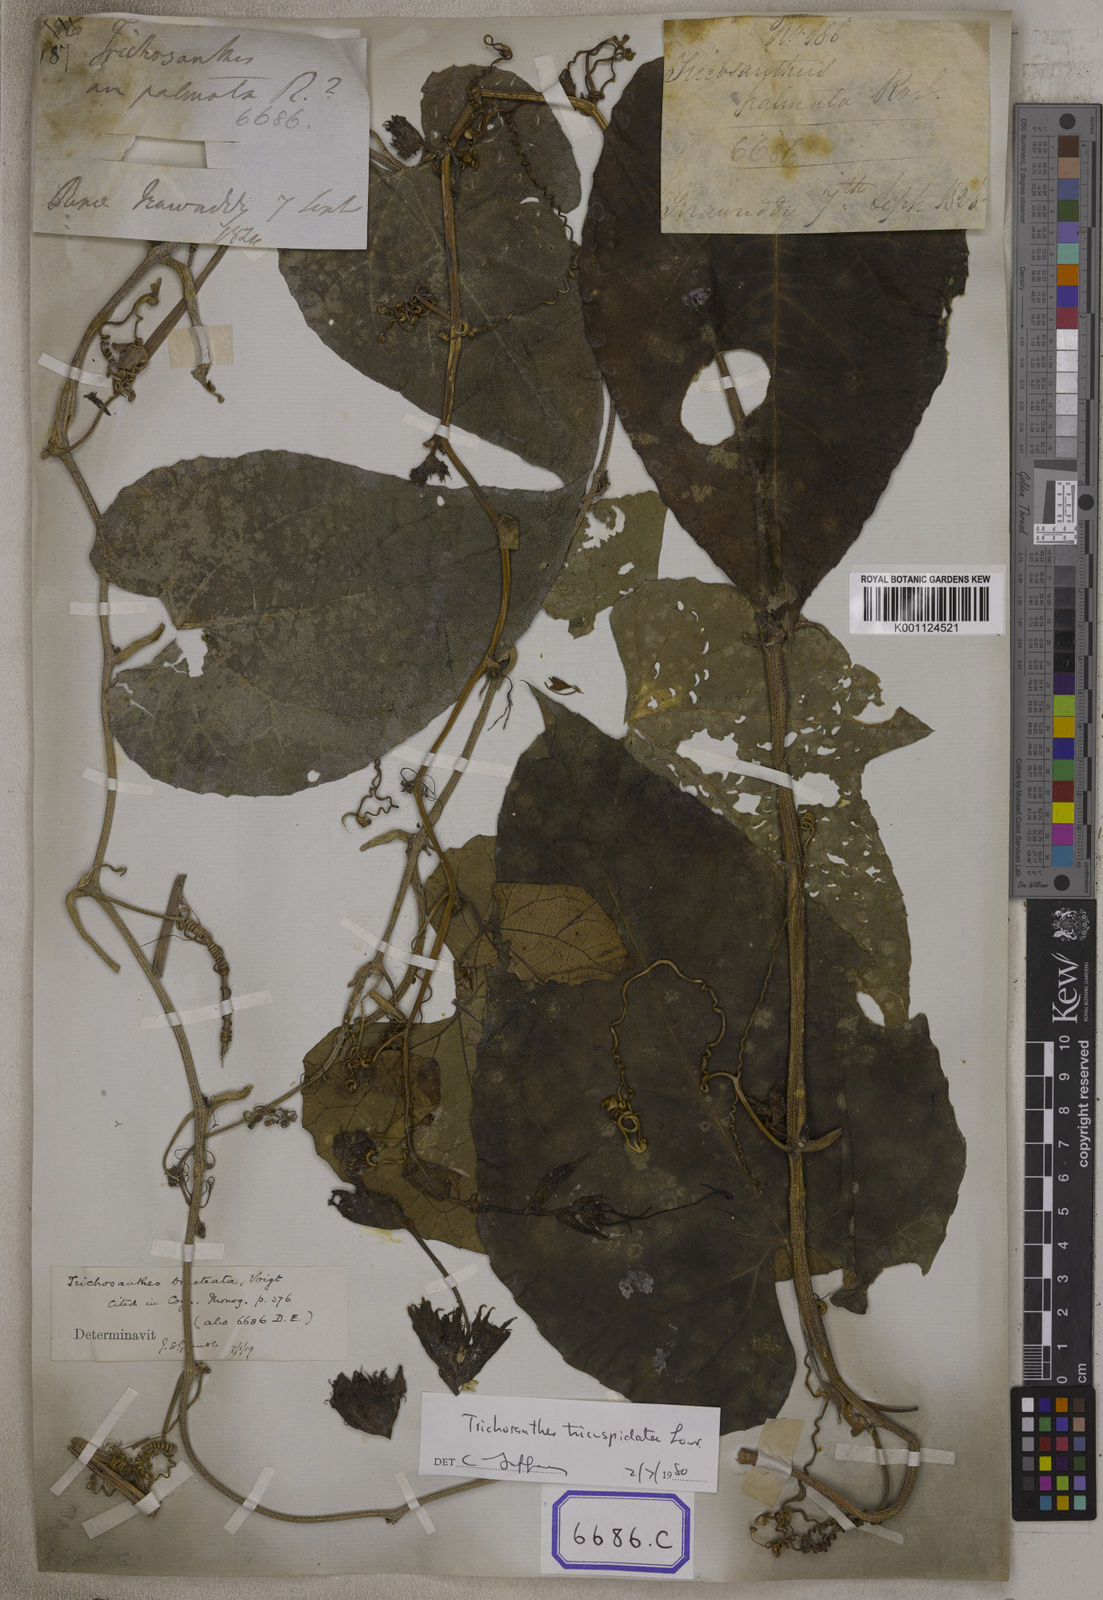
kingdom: Plantae
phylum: Tracheophyta
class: Magnoliopsida
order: Cucurbitales
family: Cucurbitaceae
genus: Trichosanthes
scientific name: Trichosanthes
